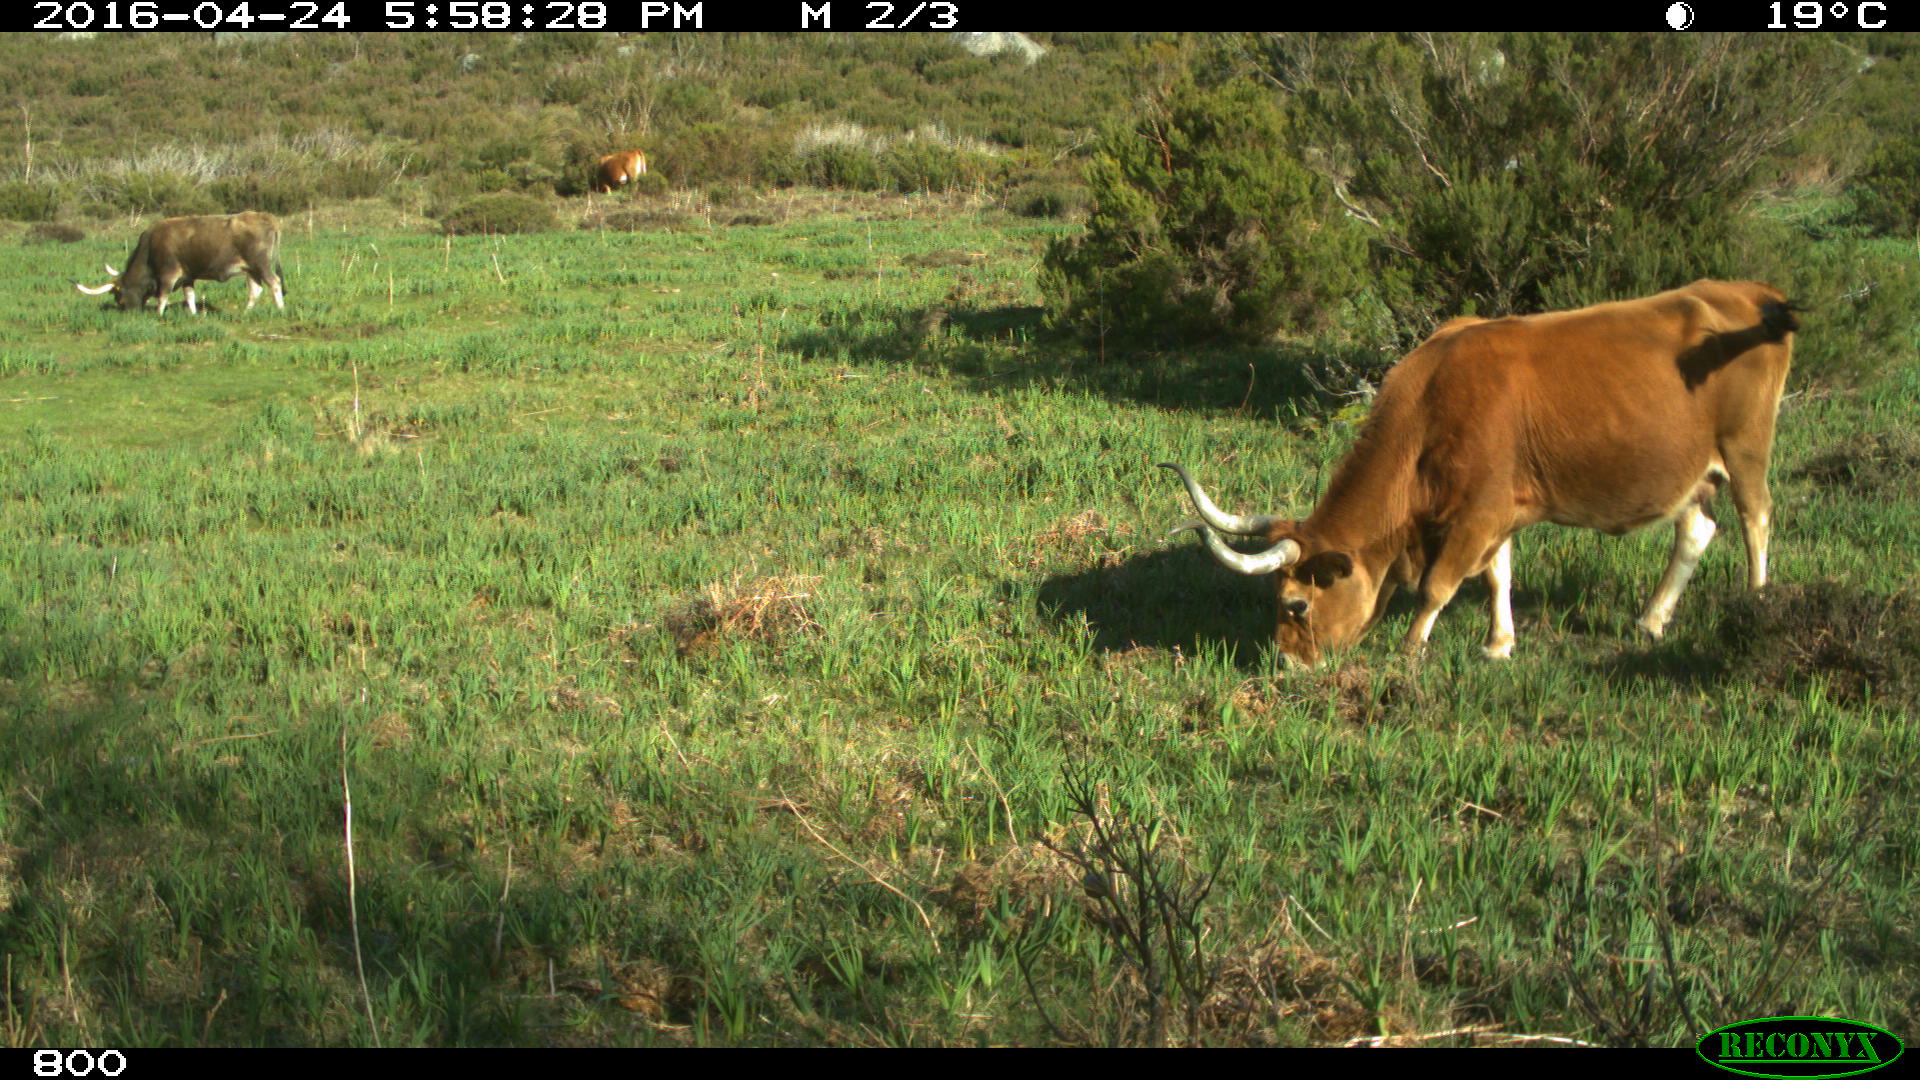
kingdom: Animalia
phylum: Chordata
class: Mammalia
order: Artiodactyla
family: Bovidae
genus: Bos
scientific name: Bos taurus
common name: Domesticated cattle
